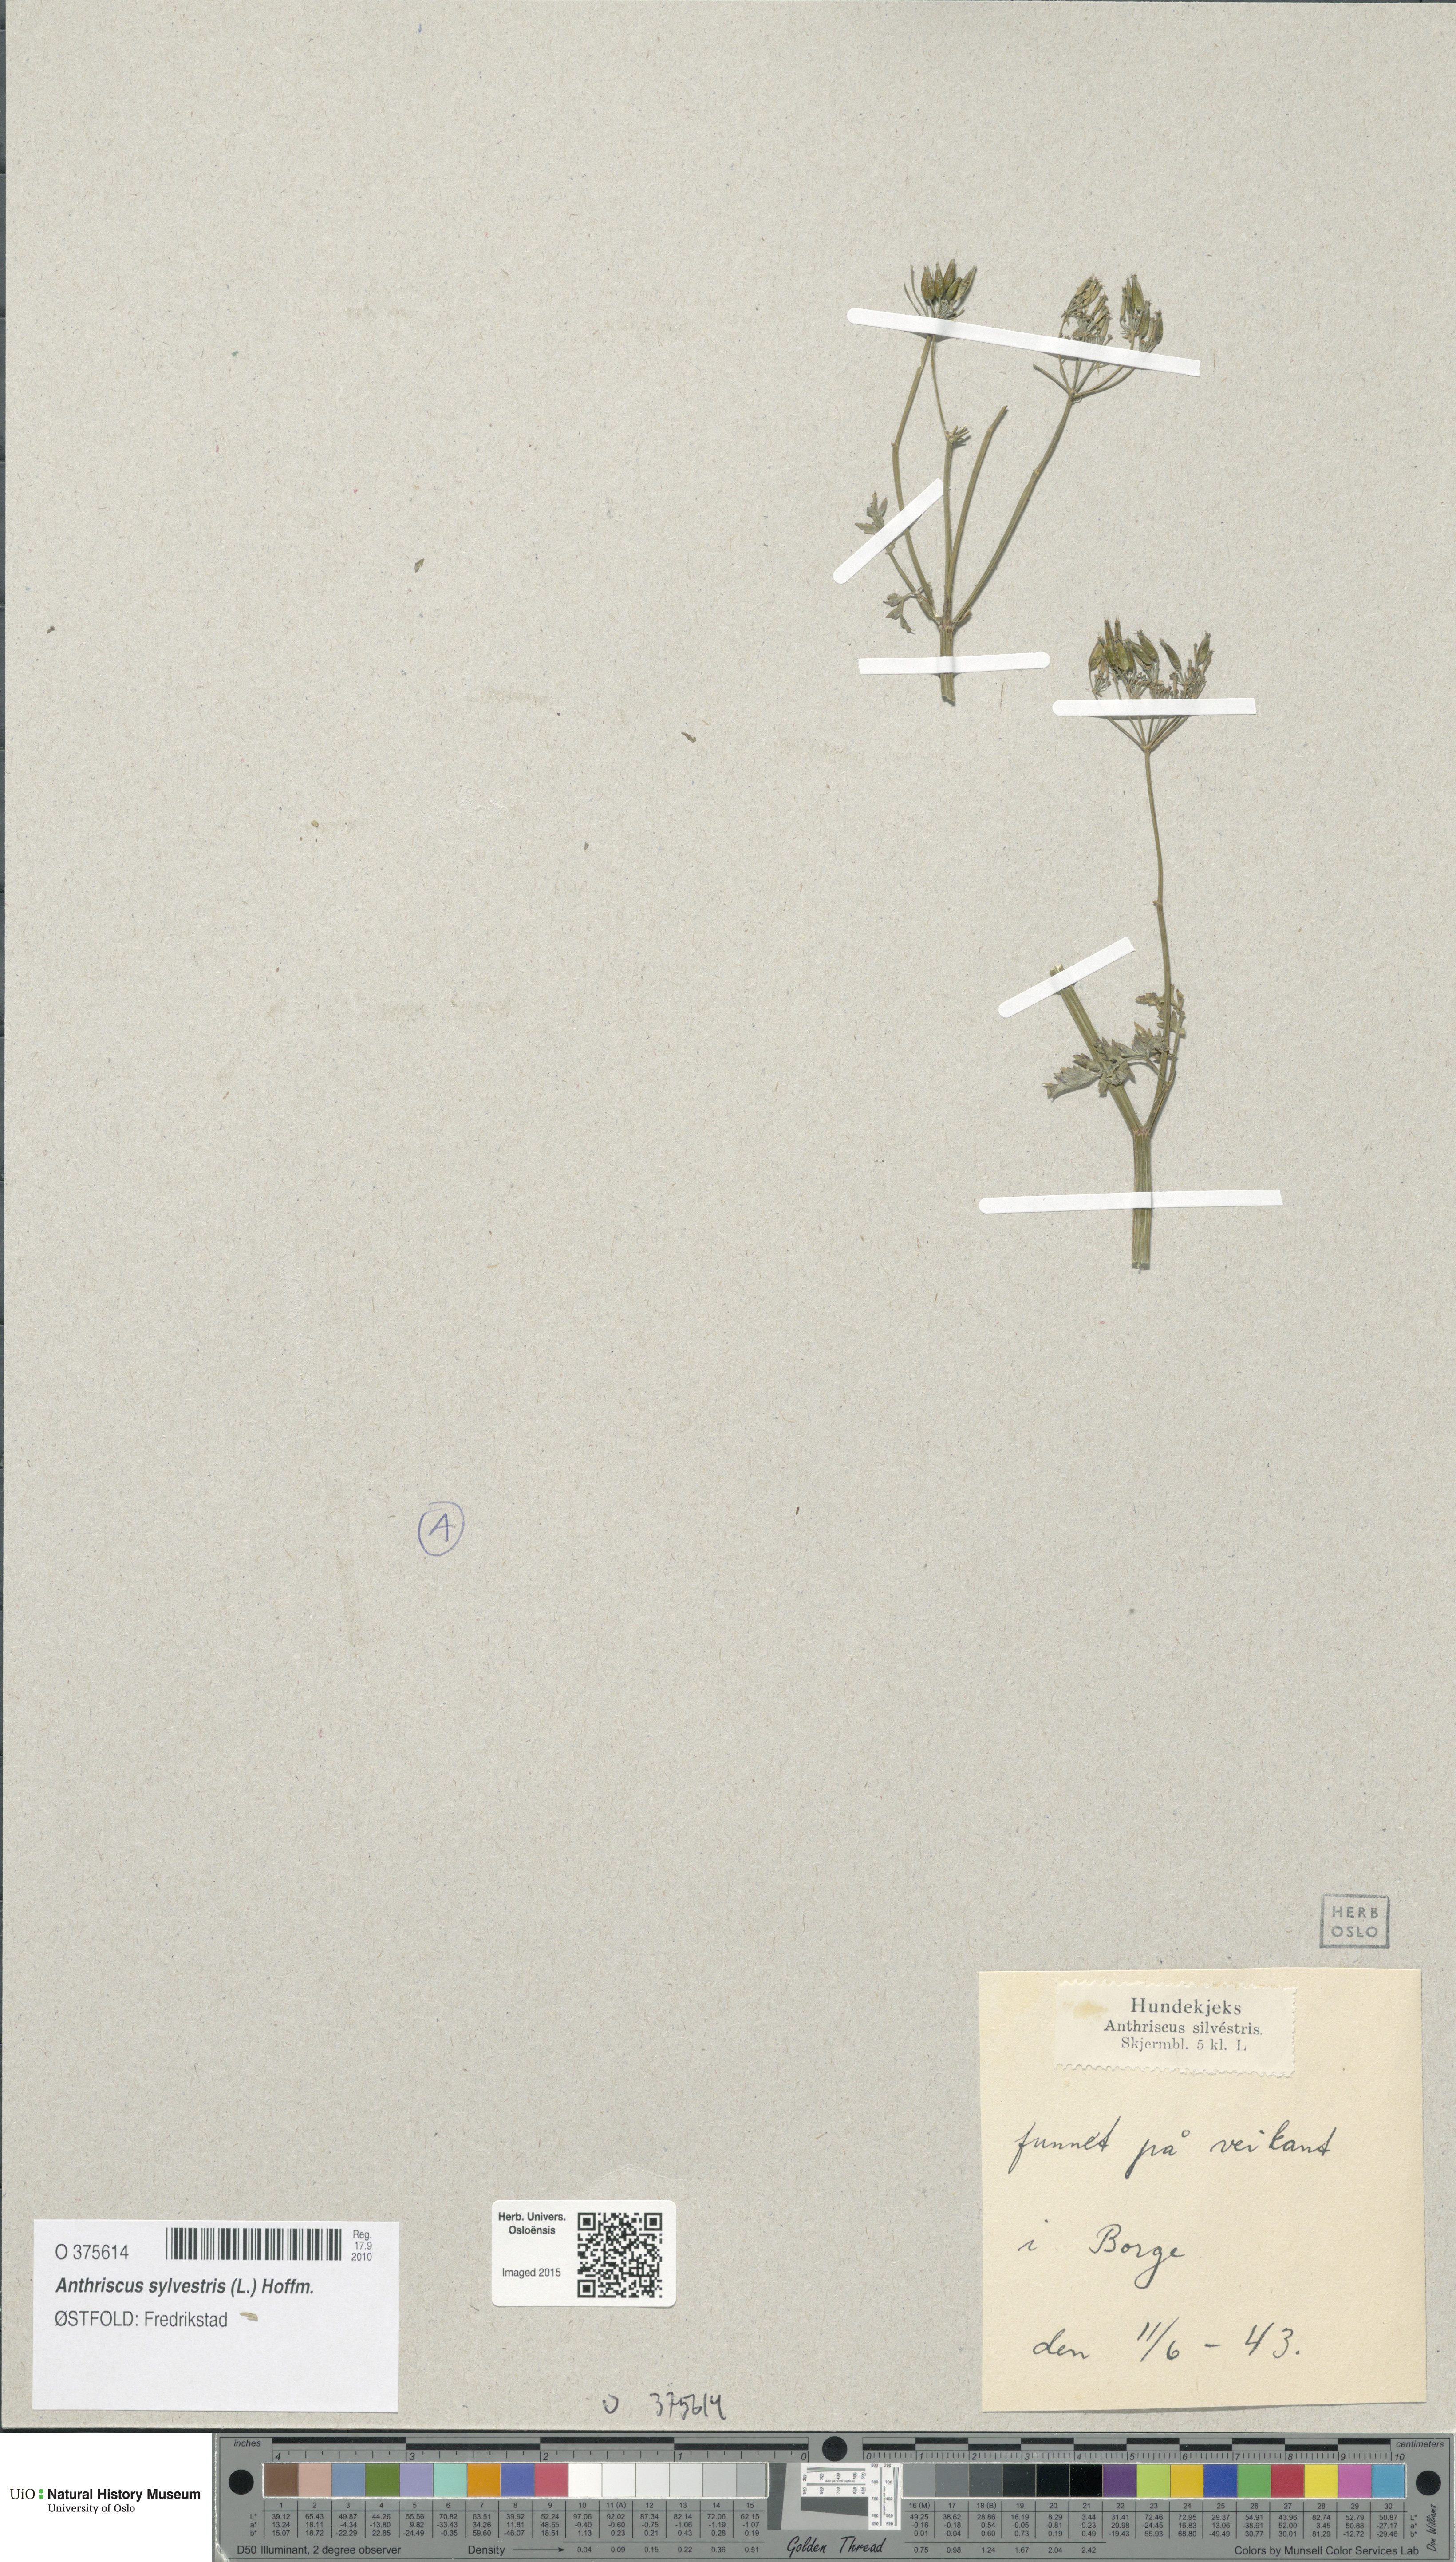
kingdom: Plantae
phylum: Tracheophyta
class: Magnoliopsida
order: Apiales
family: Apiaceae
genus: Anthriscus
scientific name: Anthriscus sylvestris
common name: Cow parsley
